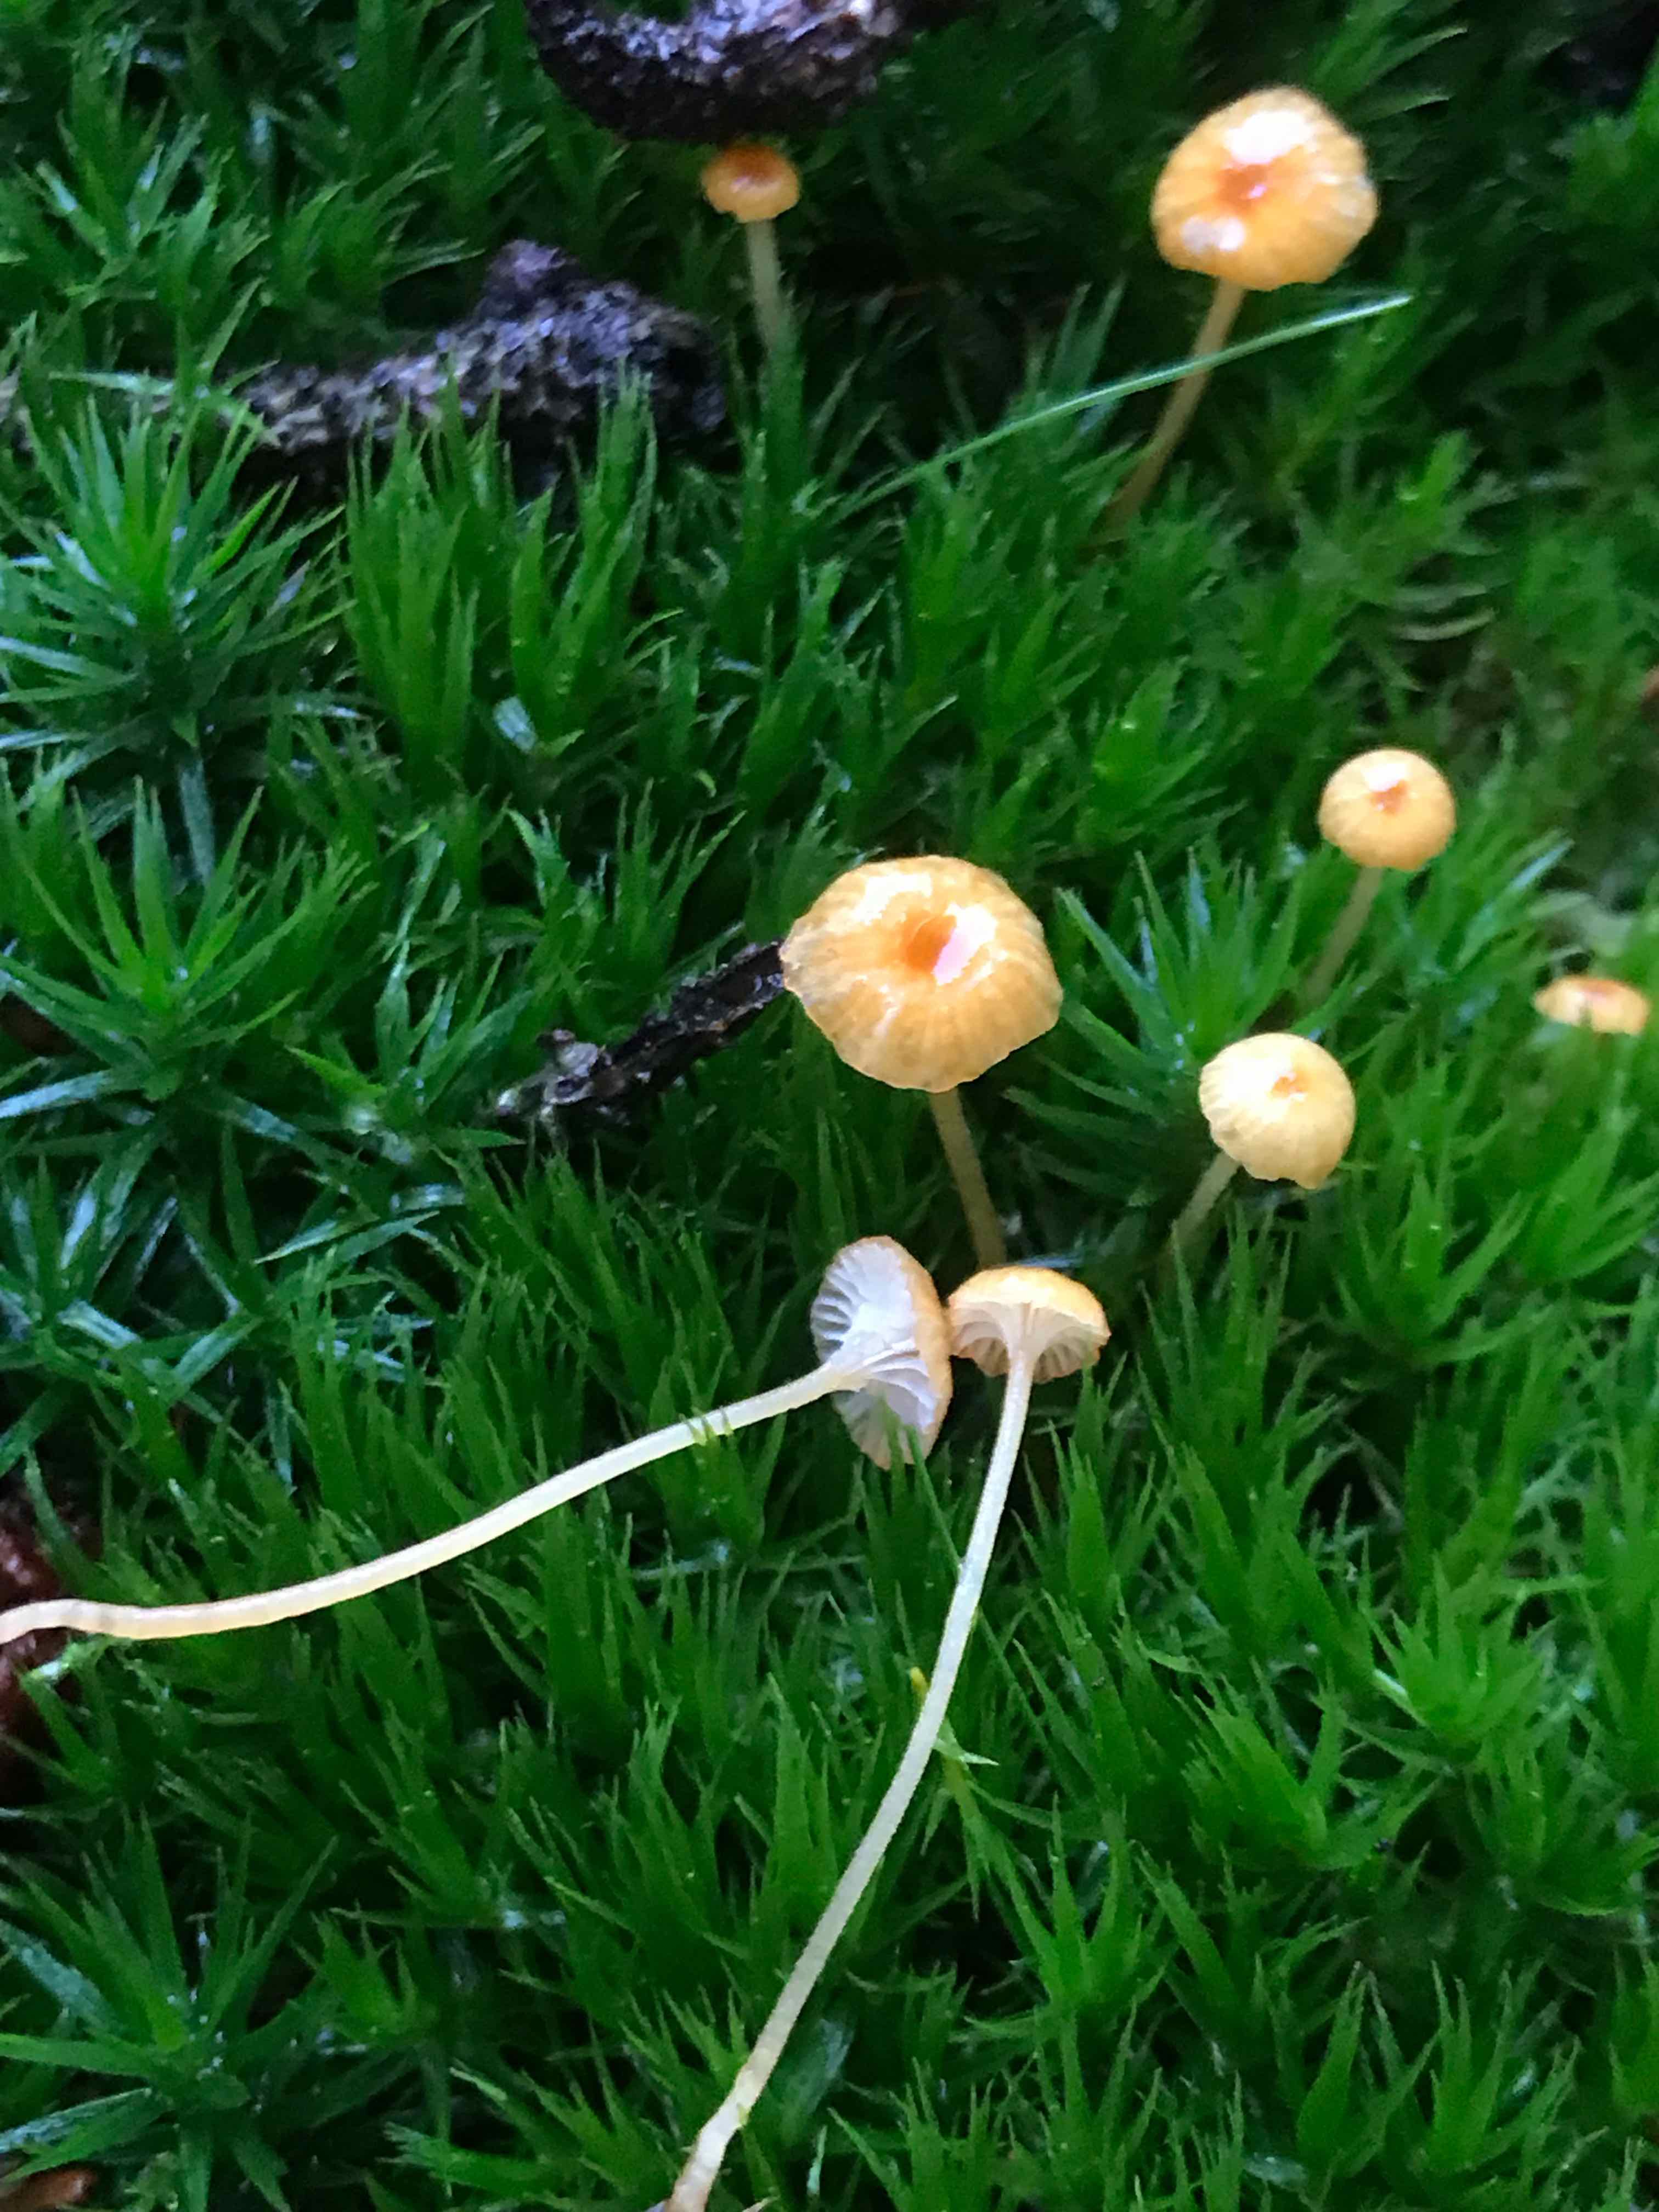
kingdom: Fungi
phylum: Basidiomycota
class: Agaricomycetes
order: Hymenochaetales
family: Rickenellaceae
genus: Rickenella
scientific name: Rickenella fibula
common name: orange mosnavlehat
